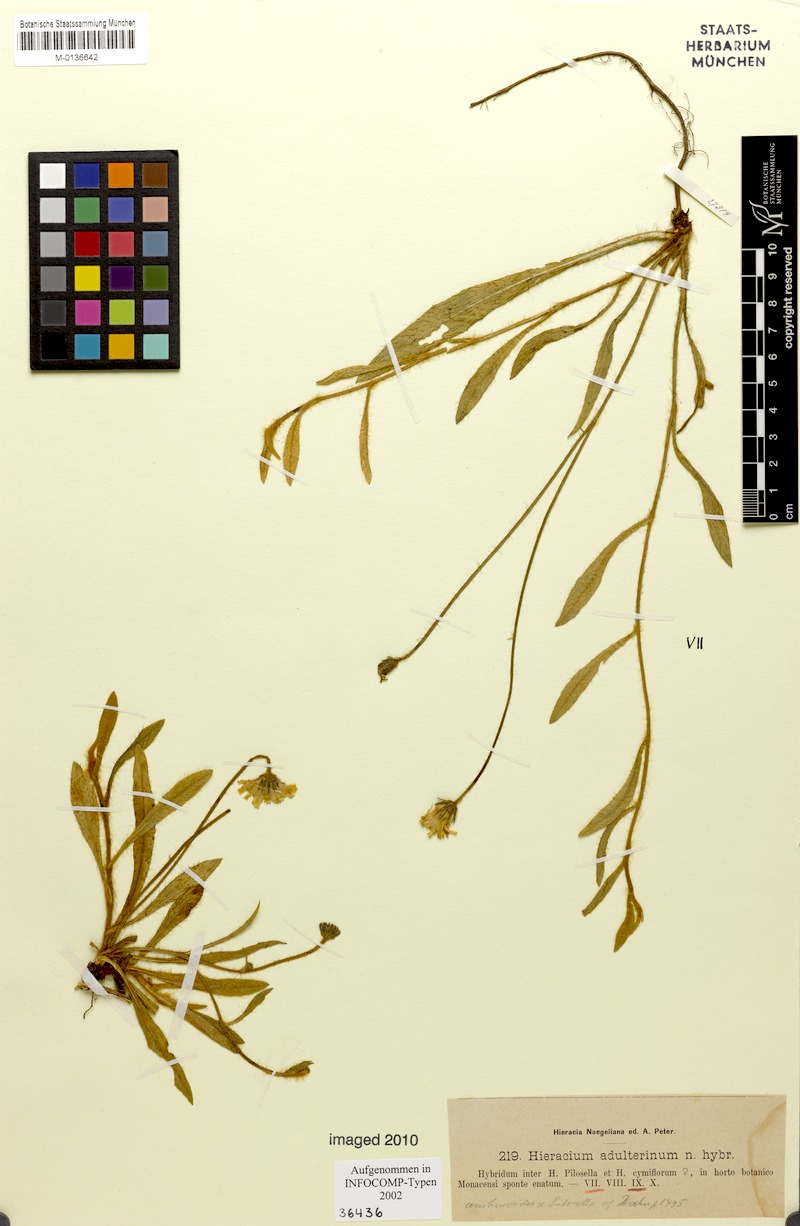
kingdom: Plantae
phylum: Tracheophyta
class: Magnoliopsida
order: Asterales
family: Asteraceae
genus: Hieracium
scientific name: Hieracium adulterinum
